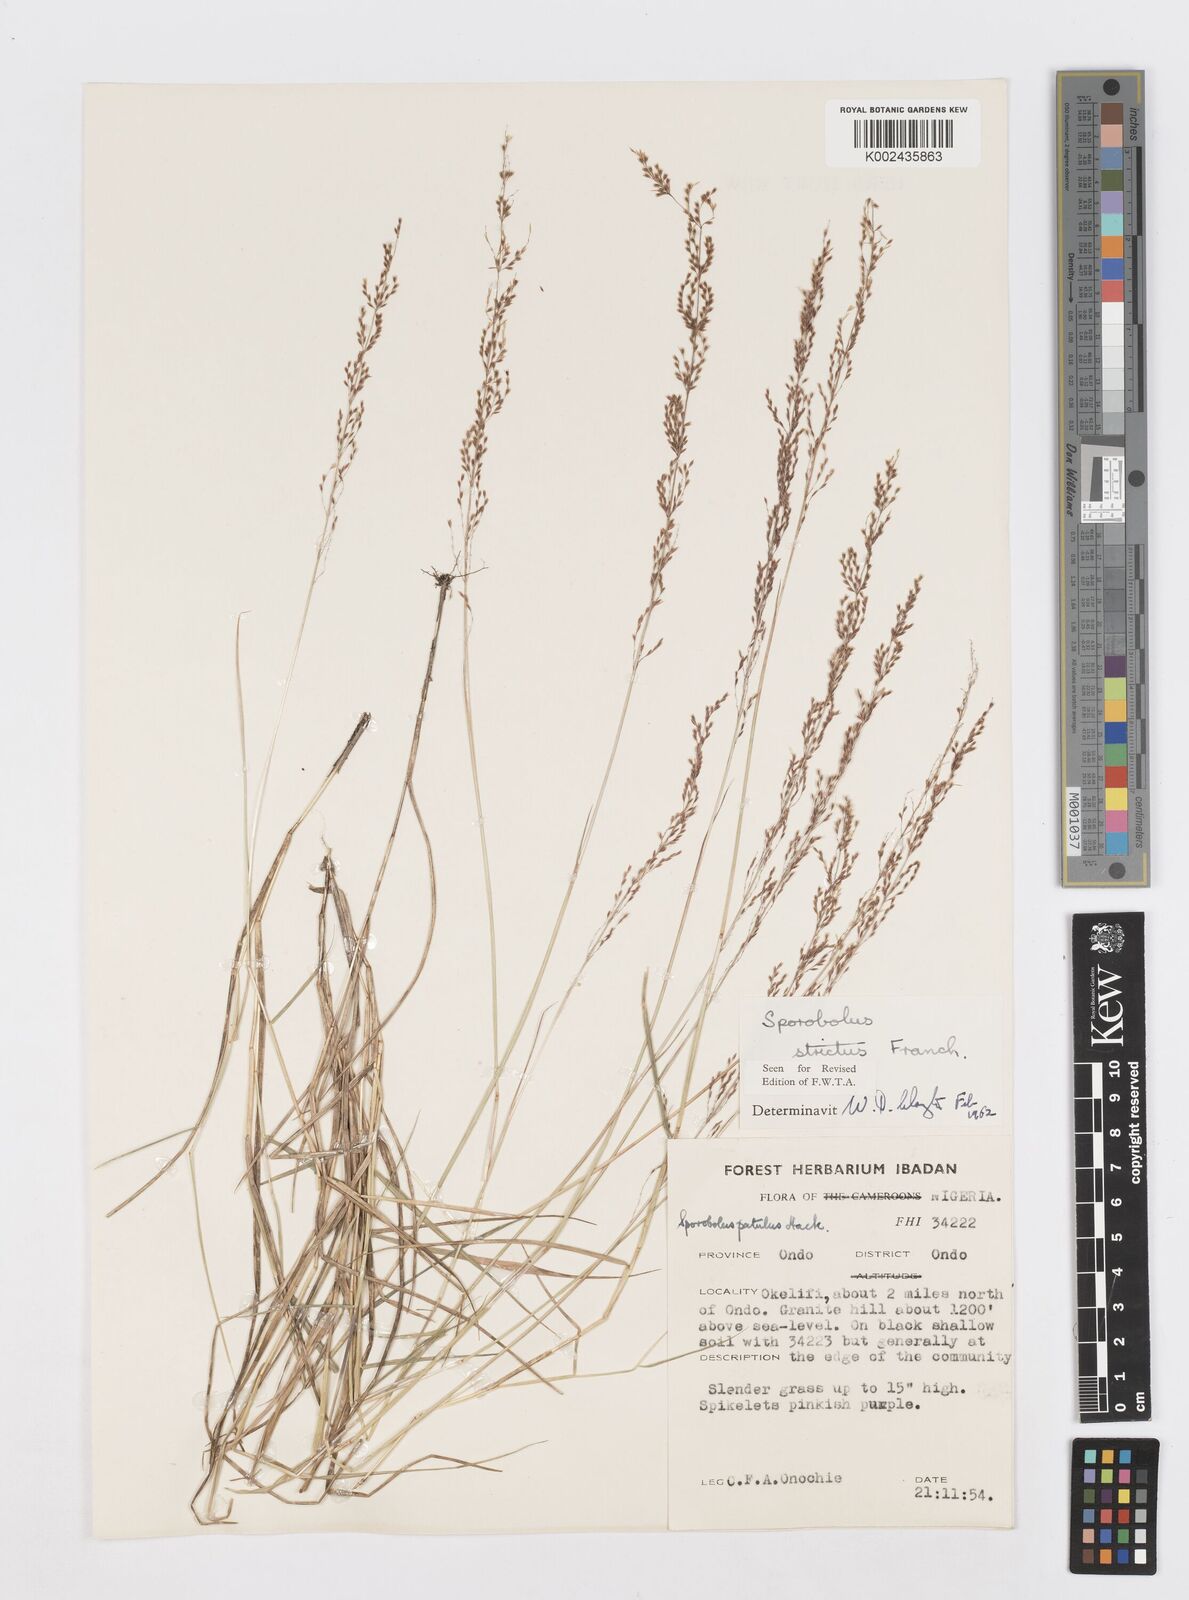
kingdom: Plantae
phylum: Tracheophyta
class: Liliopsida
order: Poales
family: Poaceae
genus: Sporobolus
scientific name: Sporobolus paniculatus
